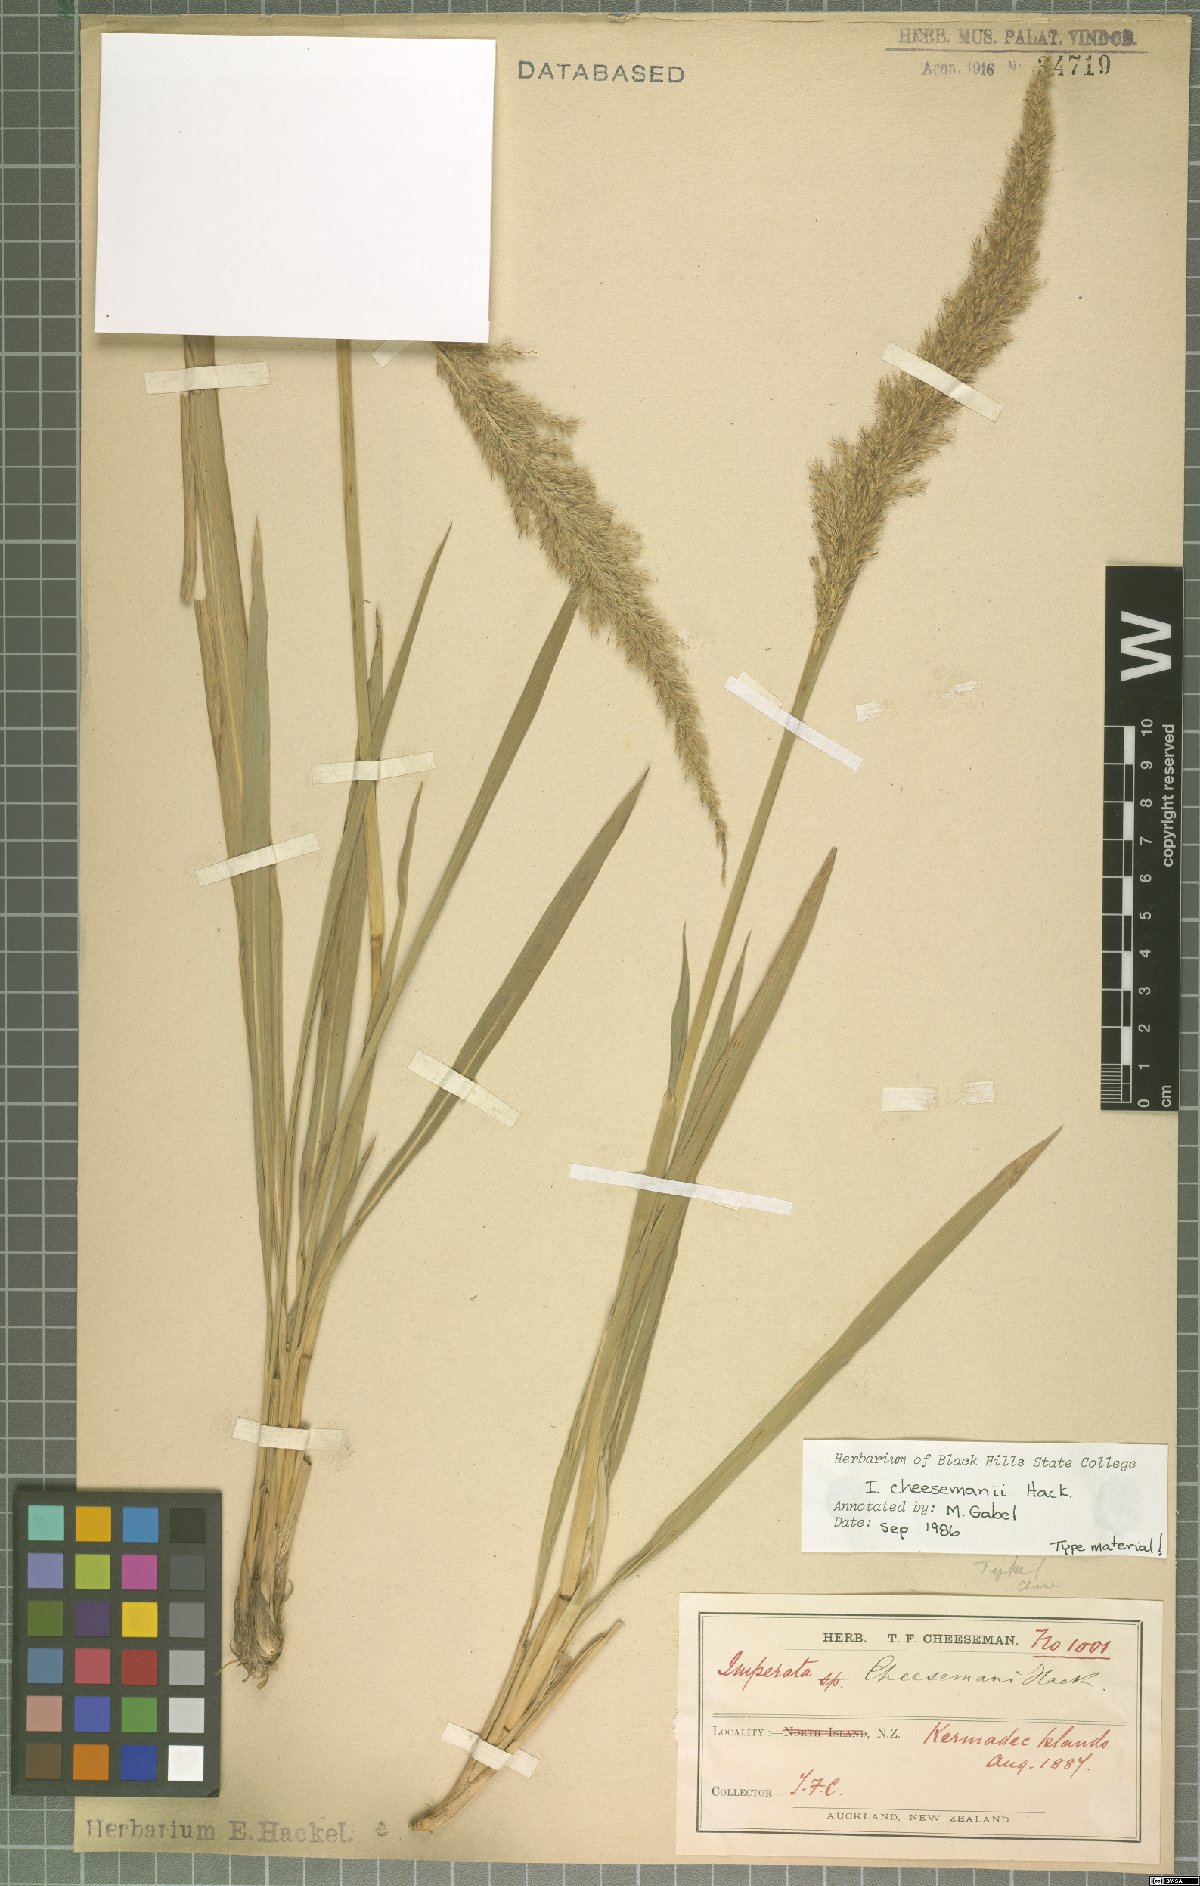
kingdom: Plantae
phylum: Tracheophyta
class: Liliopsida
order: Poales
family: Poaceae
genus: Imperata
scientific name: Imperata cheesemanii
